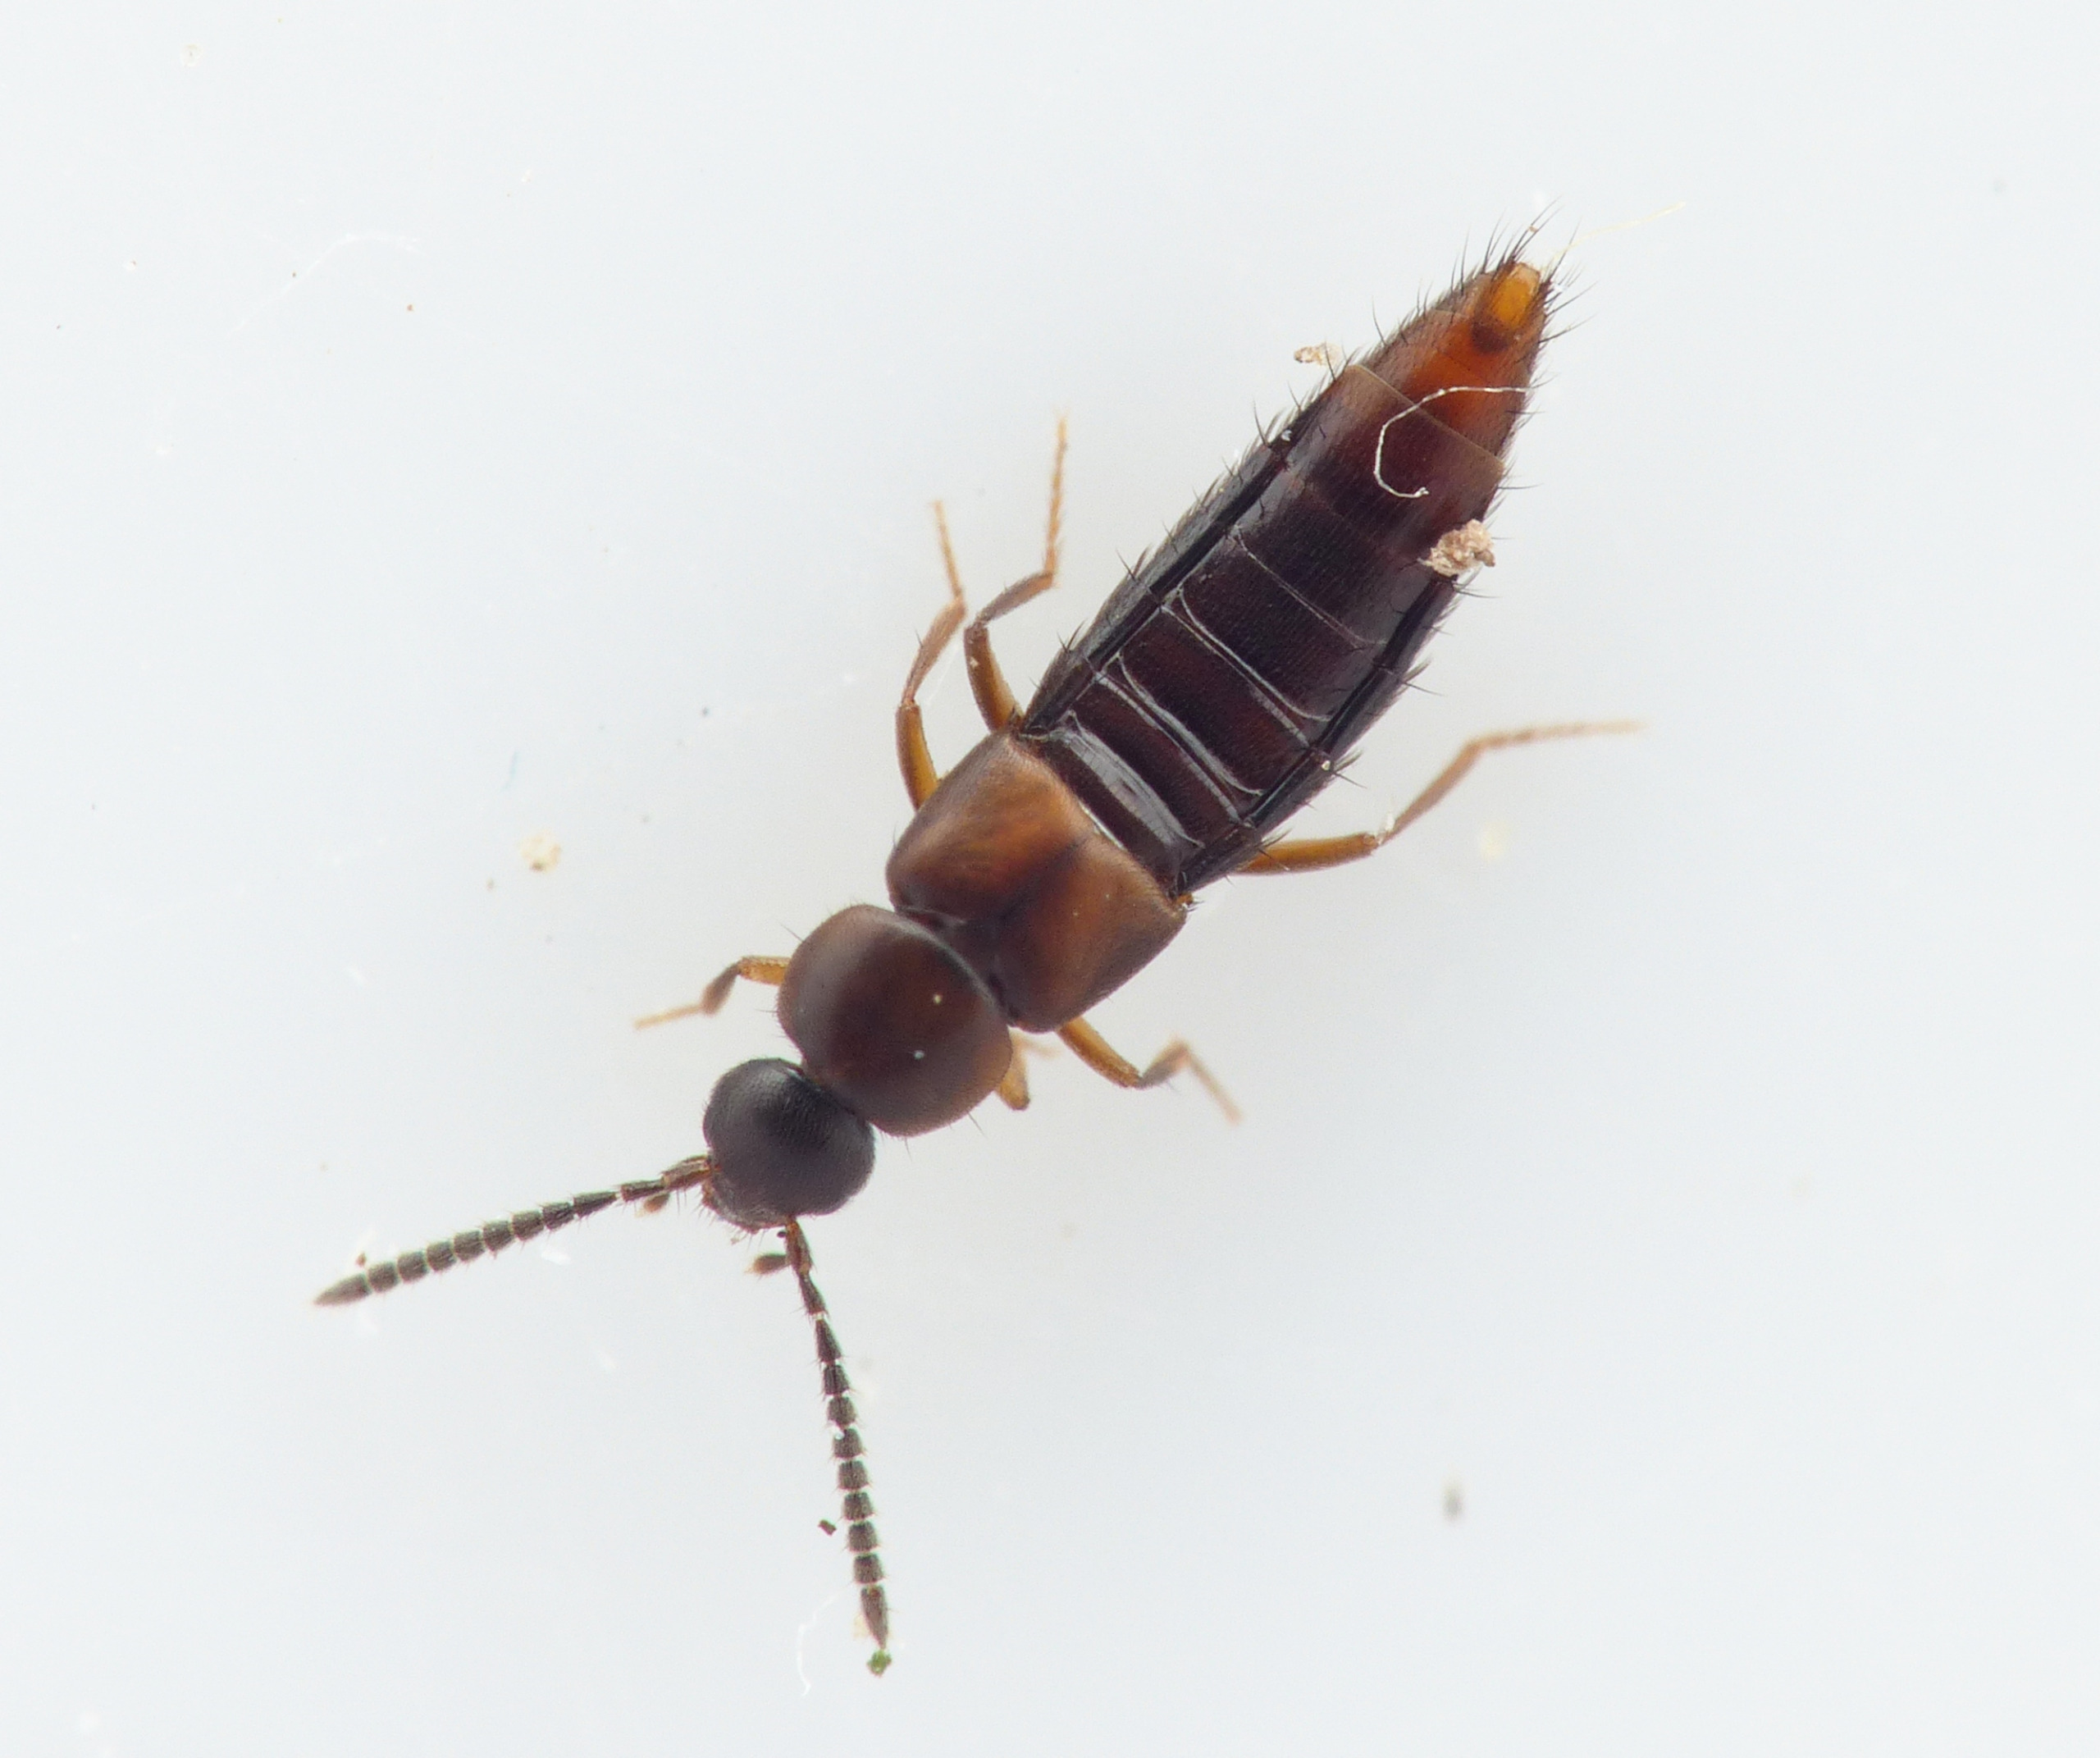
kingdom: Animalia
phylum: Arthropoda
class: Insecta
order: Coleoptera
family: Staphylinidae
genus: Acrotona
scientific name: Acrotona troglodita
